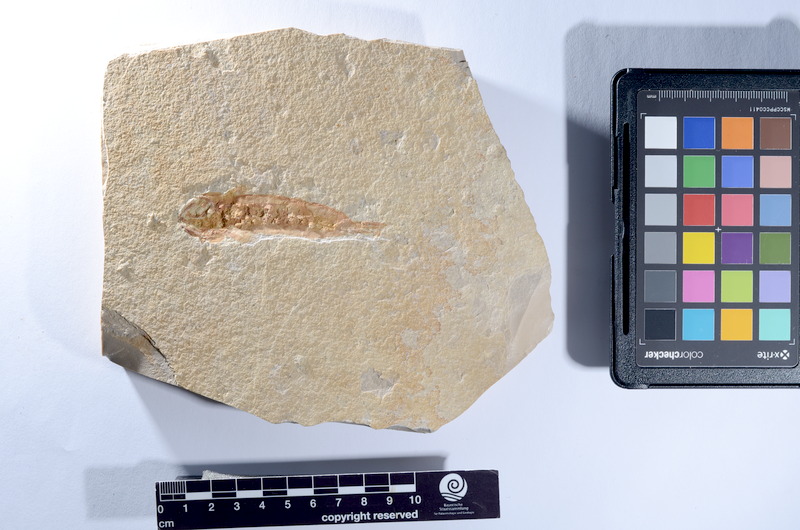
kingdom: Animalia
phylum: Chordata
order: Amiiformes
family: Caturidae
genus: Amblysemius
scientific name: Amblysemius pachyurus
